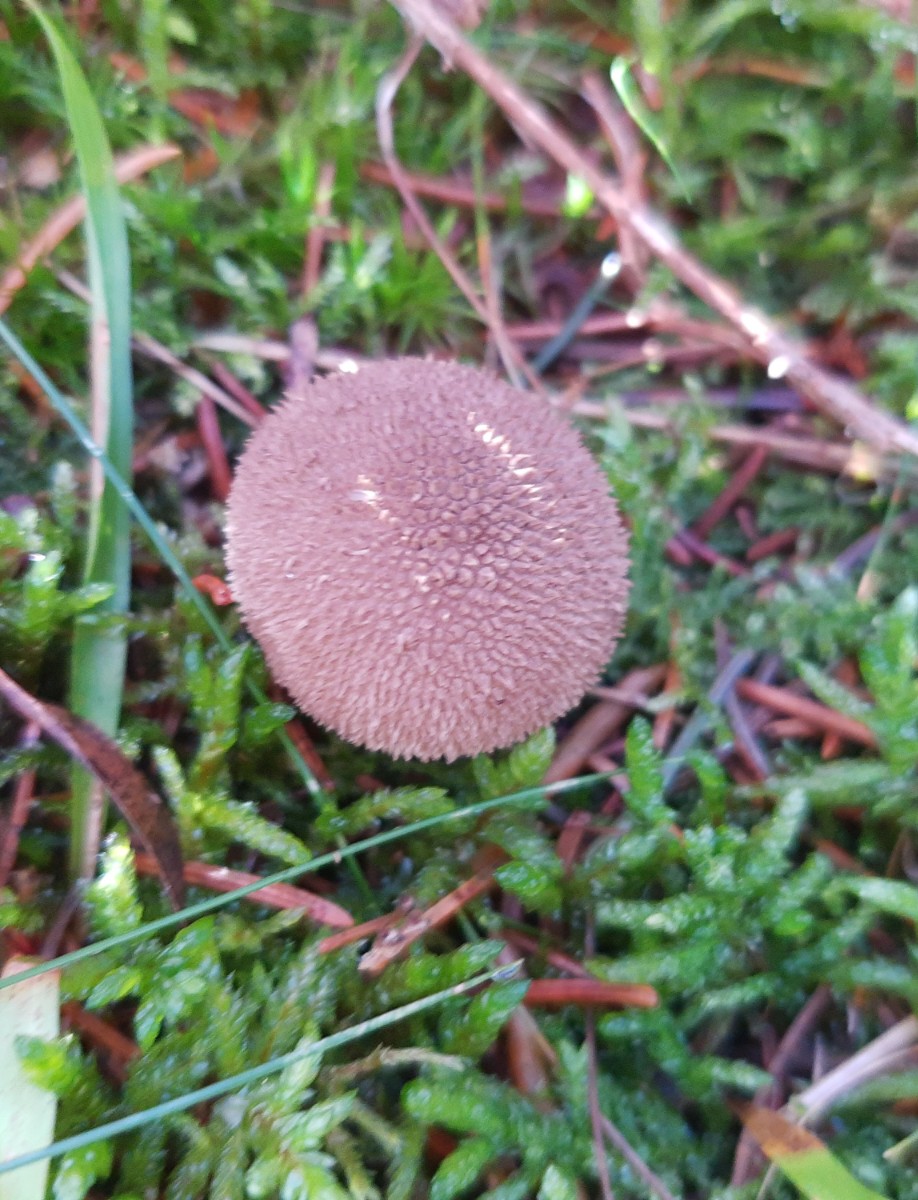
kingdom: Fungi
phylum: Basidiomycota
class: Agaricomycetes
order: Agaricales
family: Lycoperdaceae
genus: Lycoperdon
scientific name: Lycoperdon nigrescens
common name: sortagtig støvbold
